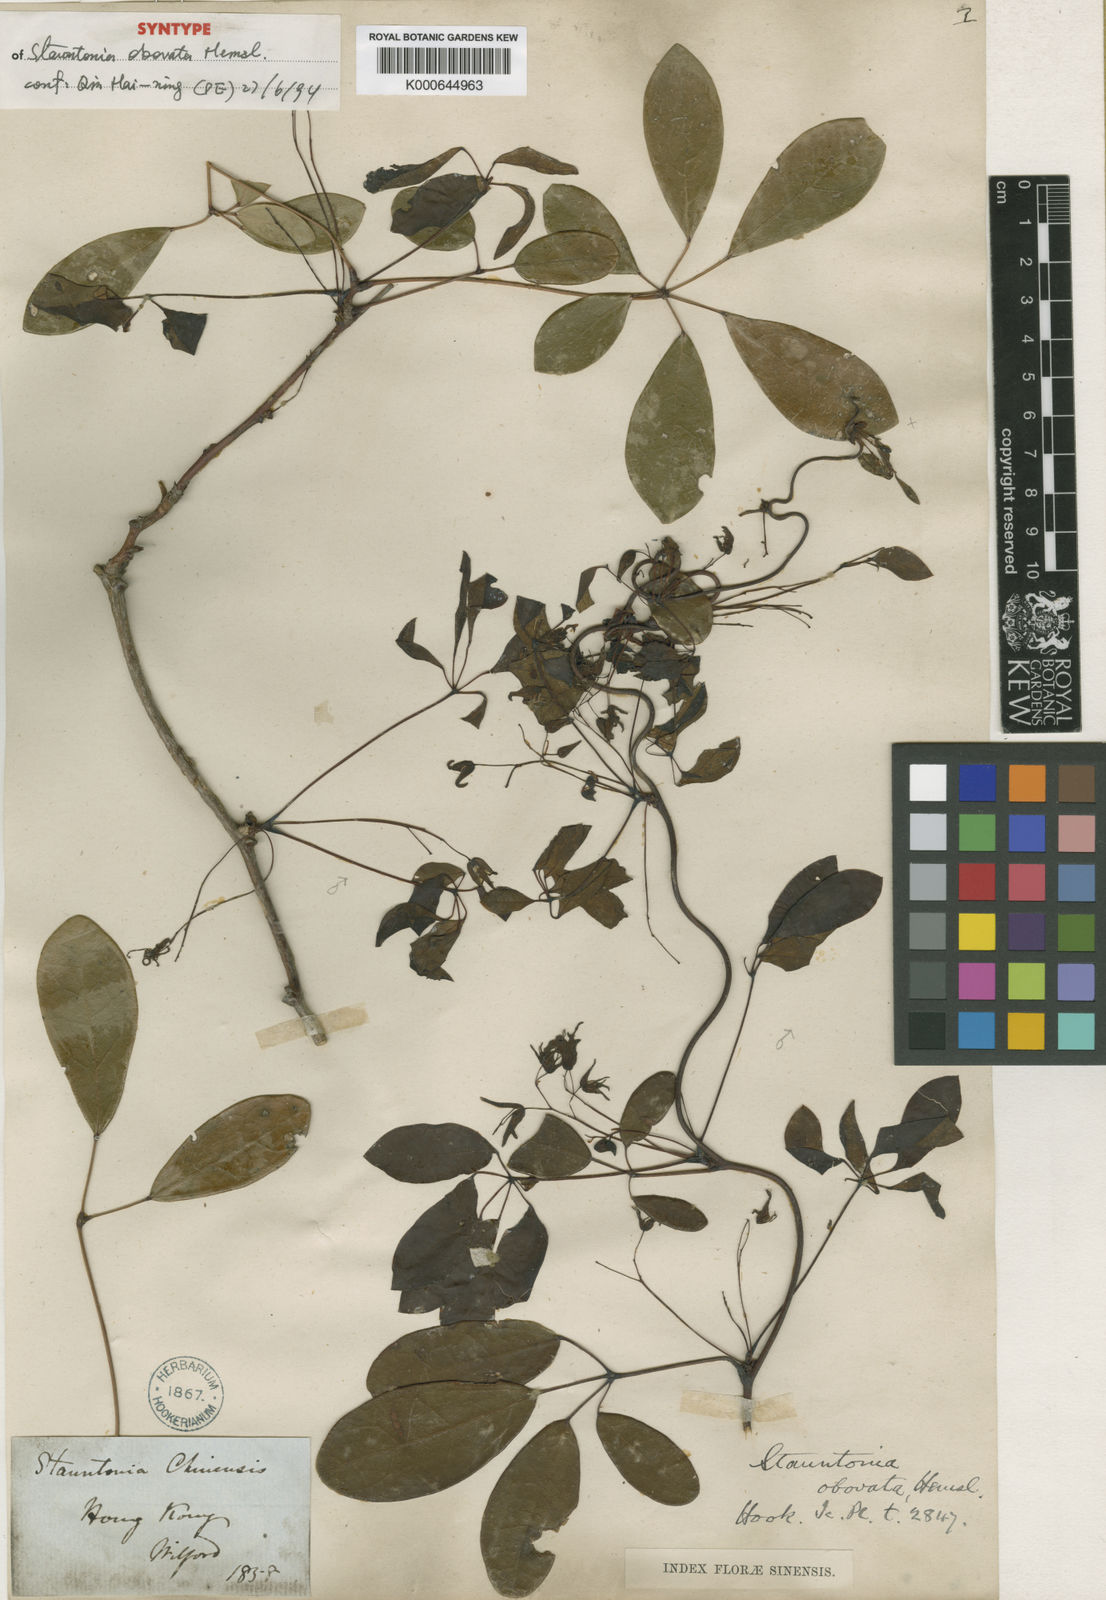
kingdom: Plantae
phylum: Tracheophyta
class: Magnoliopsida
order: Ranunculales
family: Lardizabalaceae
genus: Stauntonia
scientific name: Stauntonia obovata
